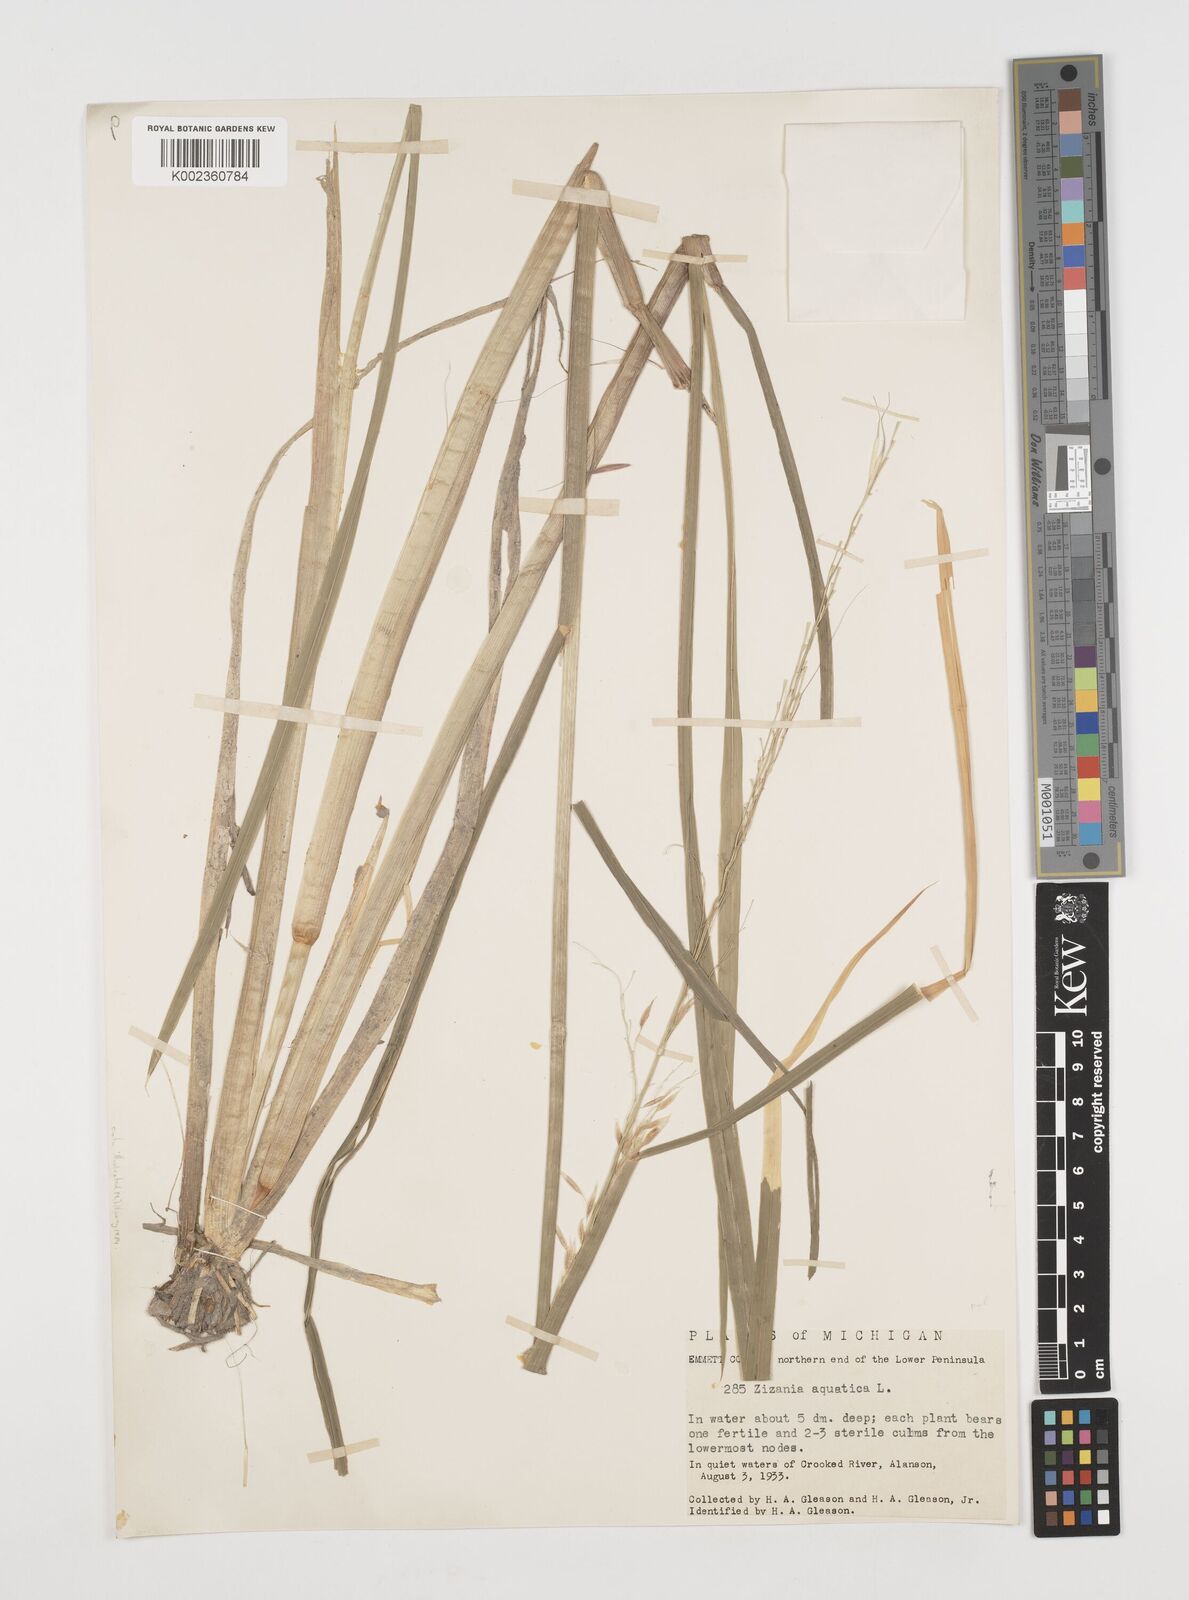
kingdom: Plantae
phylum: Tracheophyta
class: Liliopsida
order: Poales
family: Poaceae
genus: Zizania
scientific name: Zizania palustris
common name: Northern wild rice
